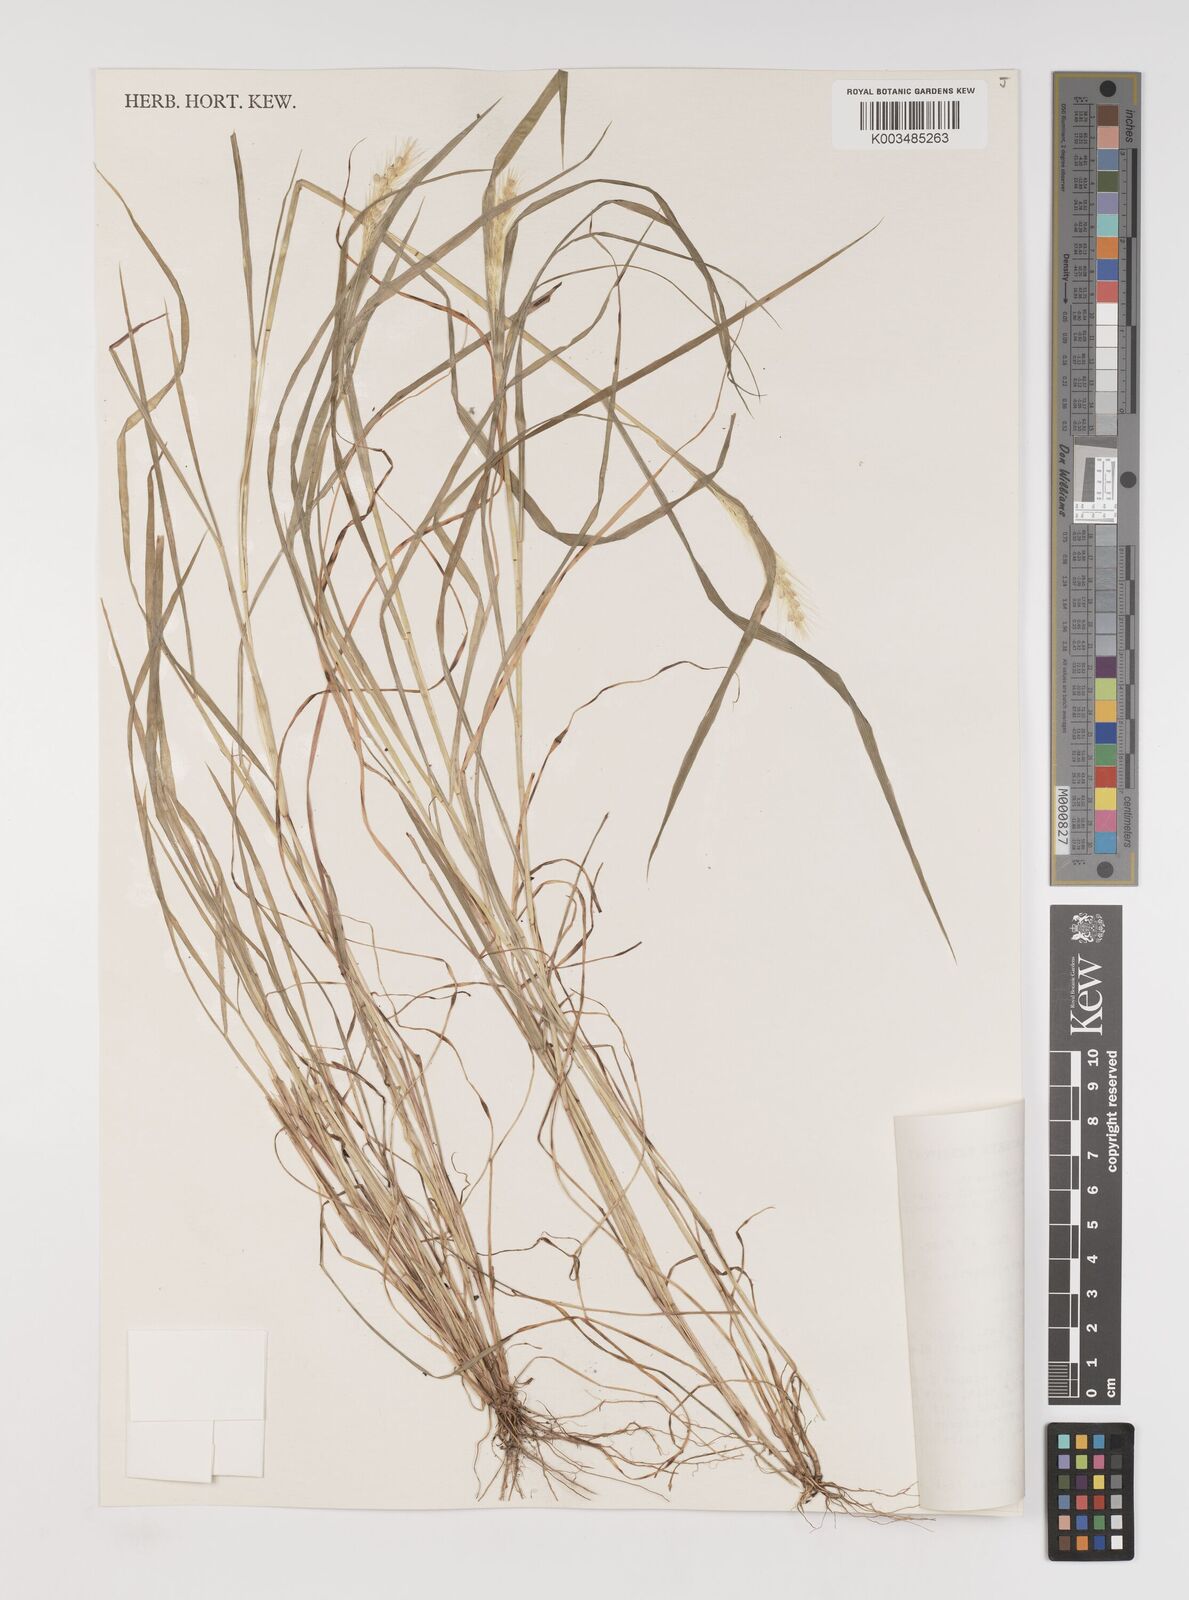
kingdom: Plantae
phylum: Tracheophyta
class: Liliopsida
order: Poales
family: Poaceae
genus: Setaria
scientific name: Setaria surgens
